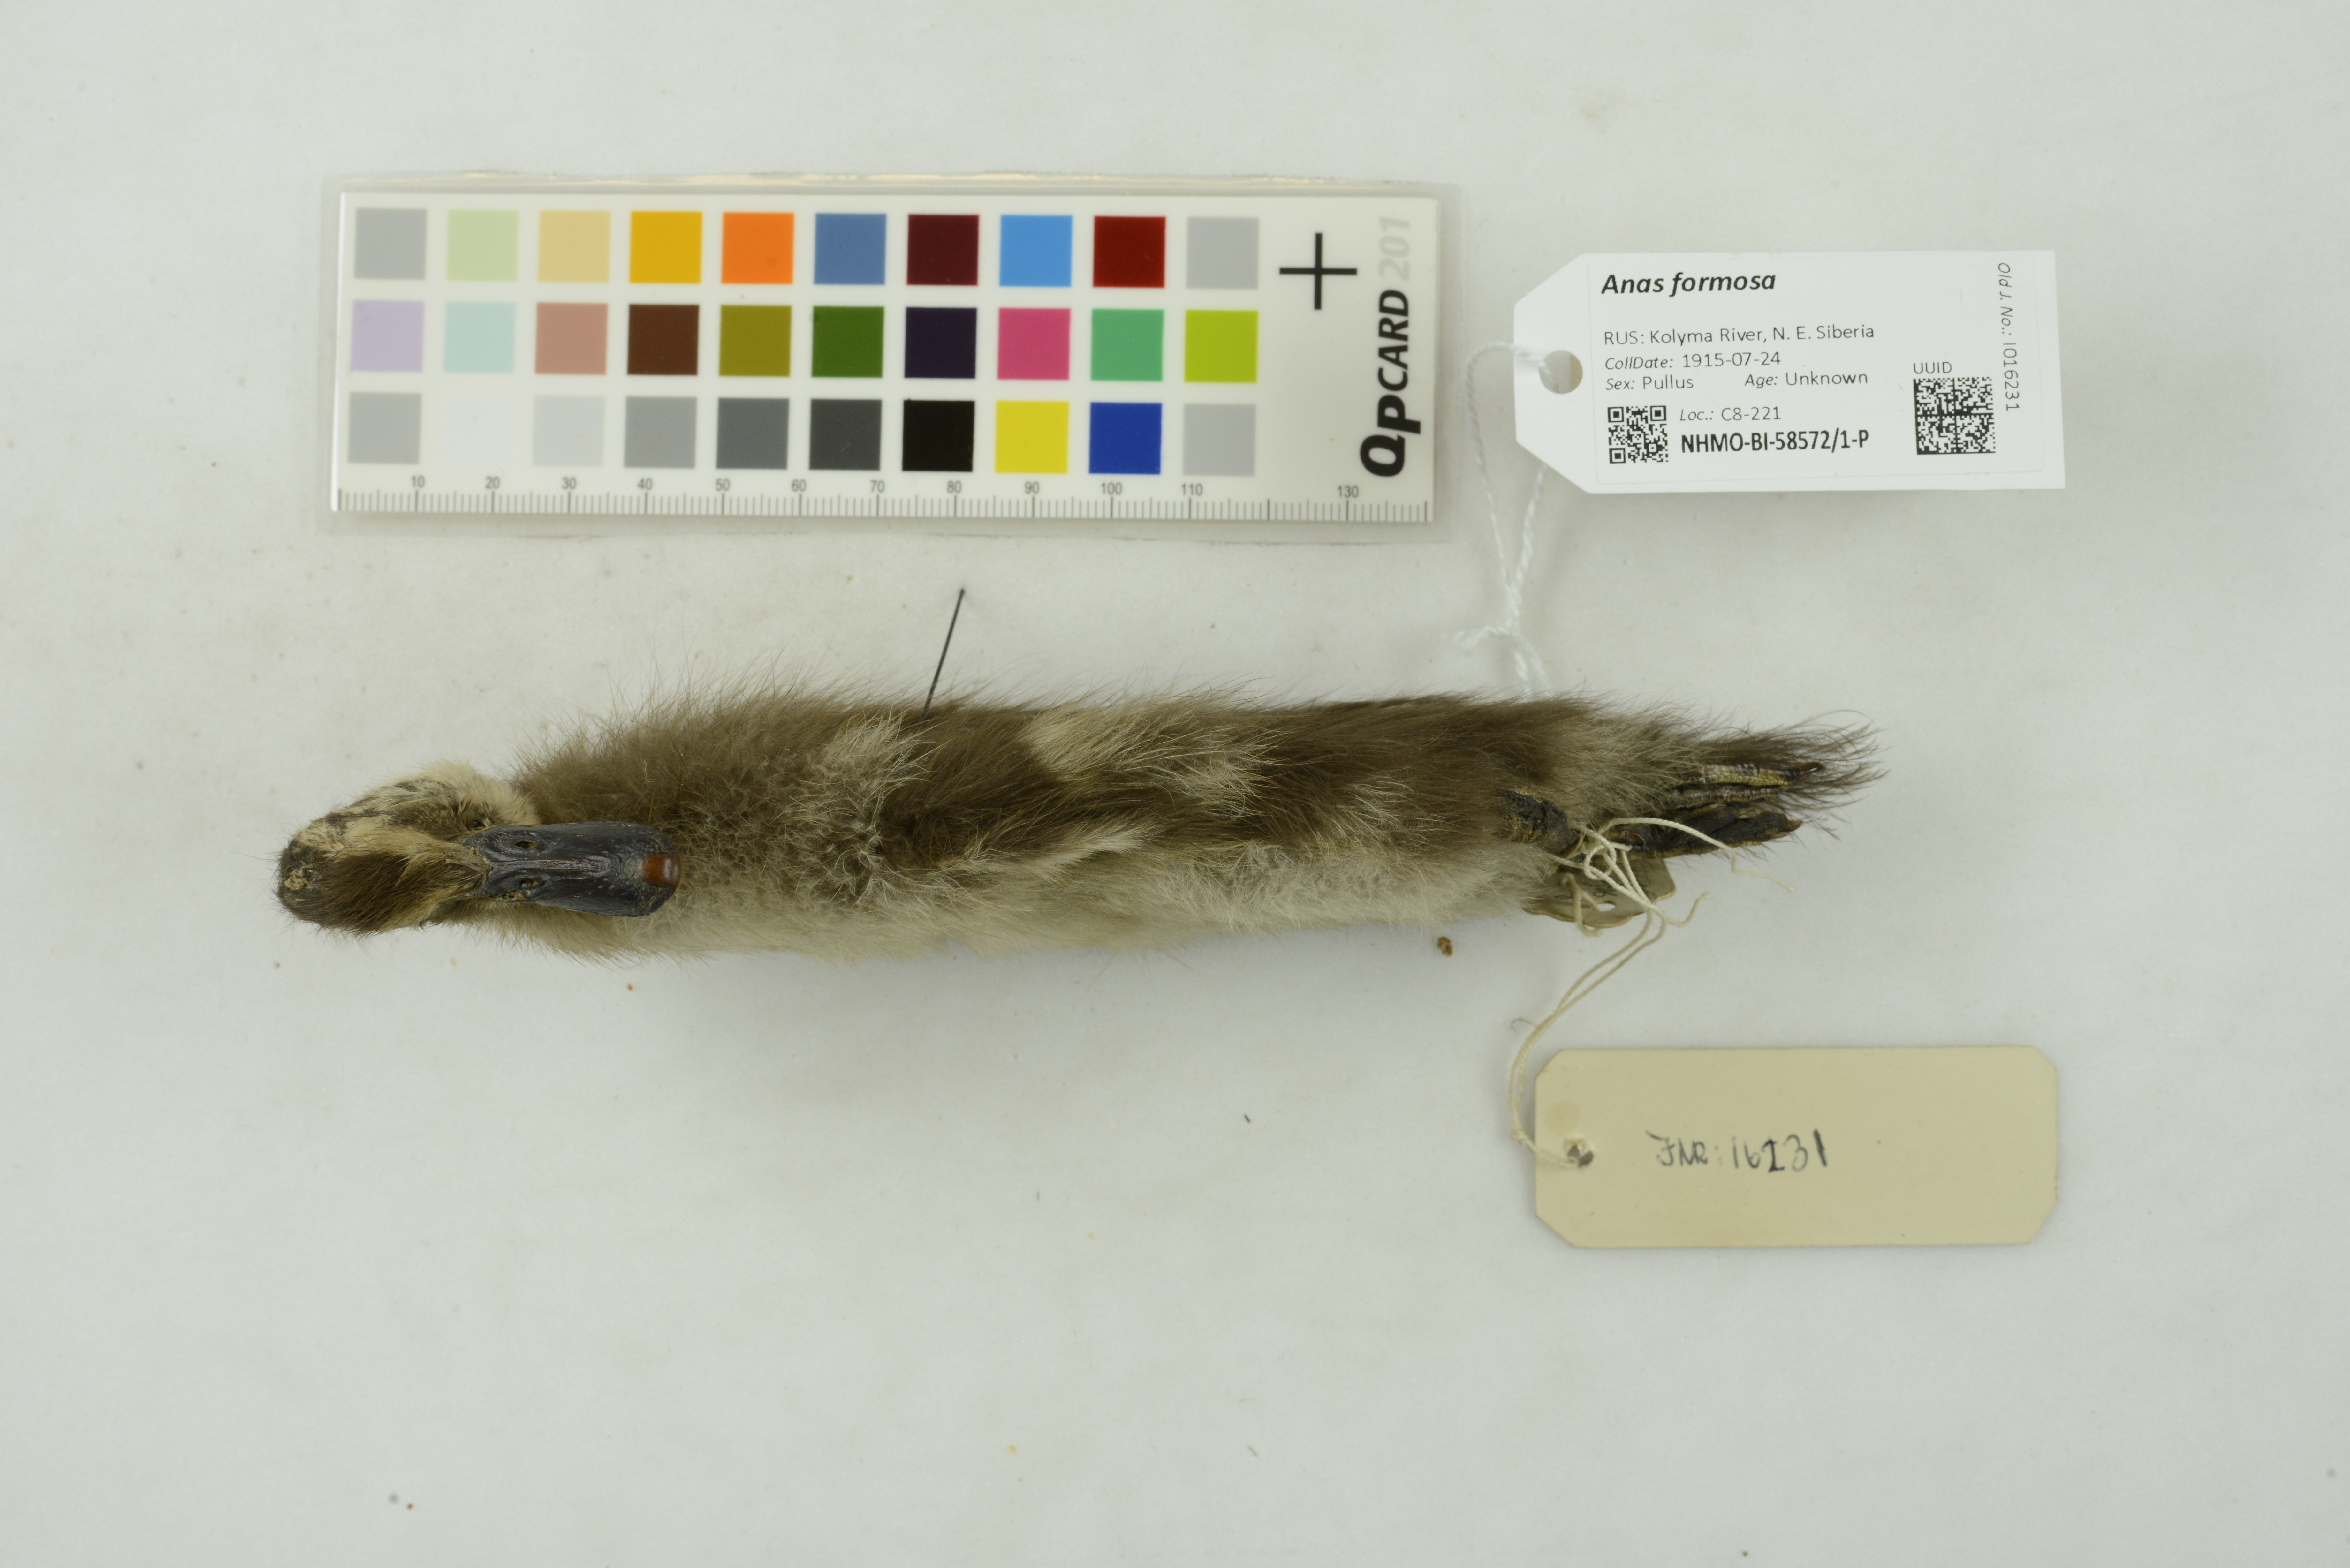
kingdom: Animalia
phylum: Chordata
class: Aves
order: Anseriformes
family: Anatidae
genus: Sibirionetta
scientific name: Sibirionetta formosa
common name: Baikal teal
